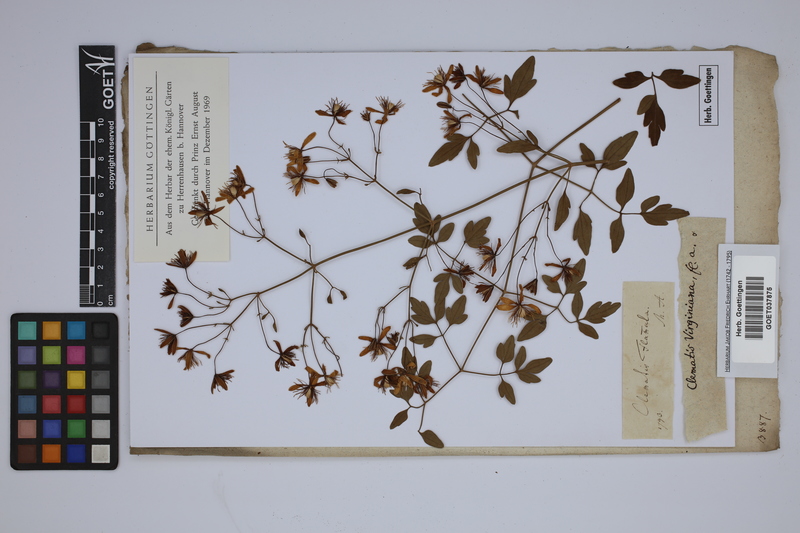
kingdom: Plantae
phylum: Tracheophyta
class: Magnoliopsida
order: Ranunculales
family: Ranunculaceae
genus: Clematis
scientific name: Clematis flammula
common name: Virgin's-bower
